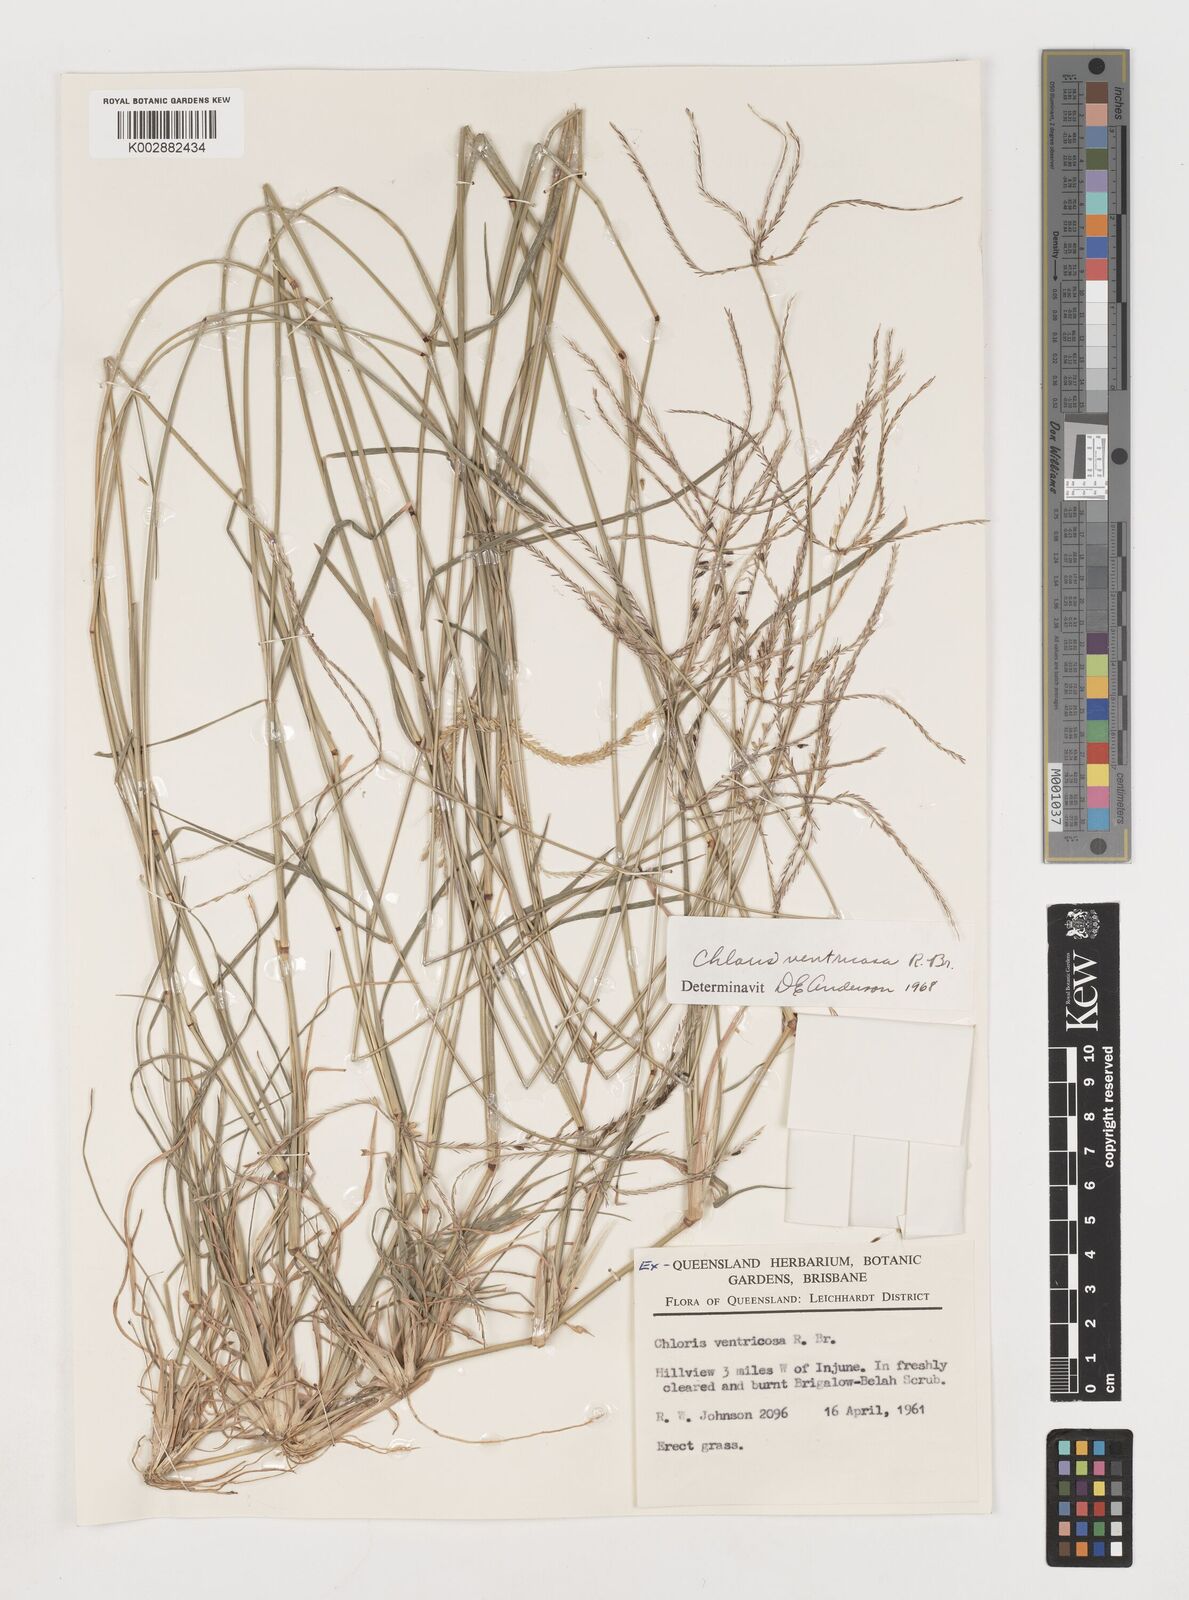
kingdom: Plantae
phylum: Tracheophyta
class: Liliopsida
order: Poales
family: Poaceae
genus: Chloris
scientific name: Chloris ventricosa
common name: Australian windmill grass
